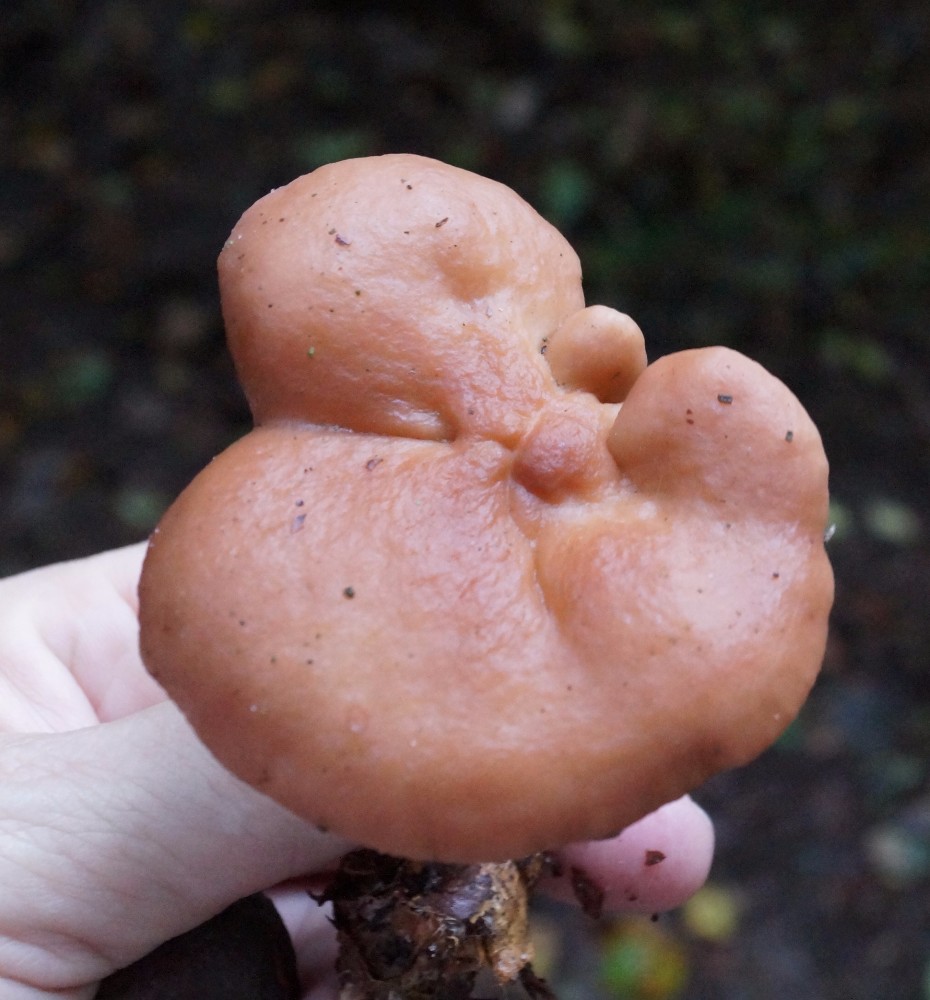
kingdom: Fungi
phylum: Basidiomycota
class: Agaricomycetes
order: Russulales
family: Russulaceae
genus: Lactarius
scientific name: Lactarius subdulcis
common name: sødlig mælkehat
